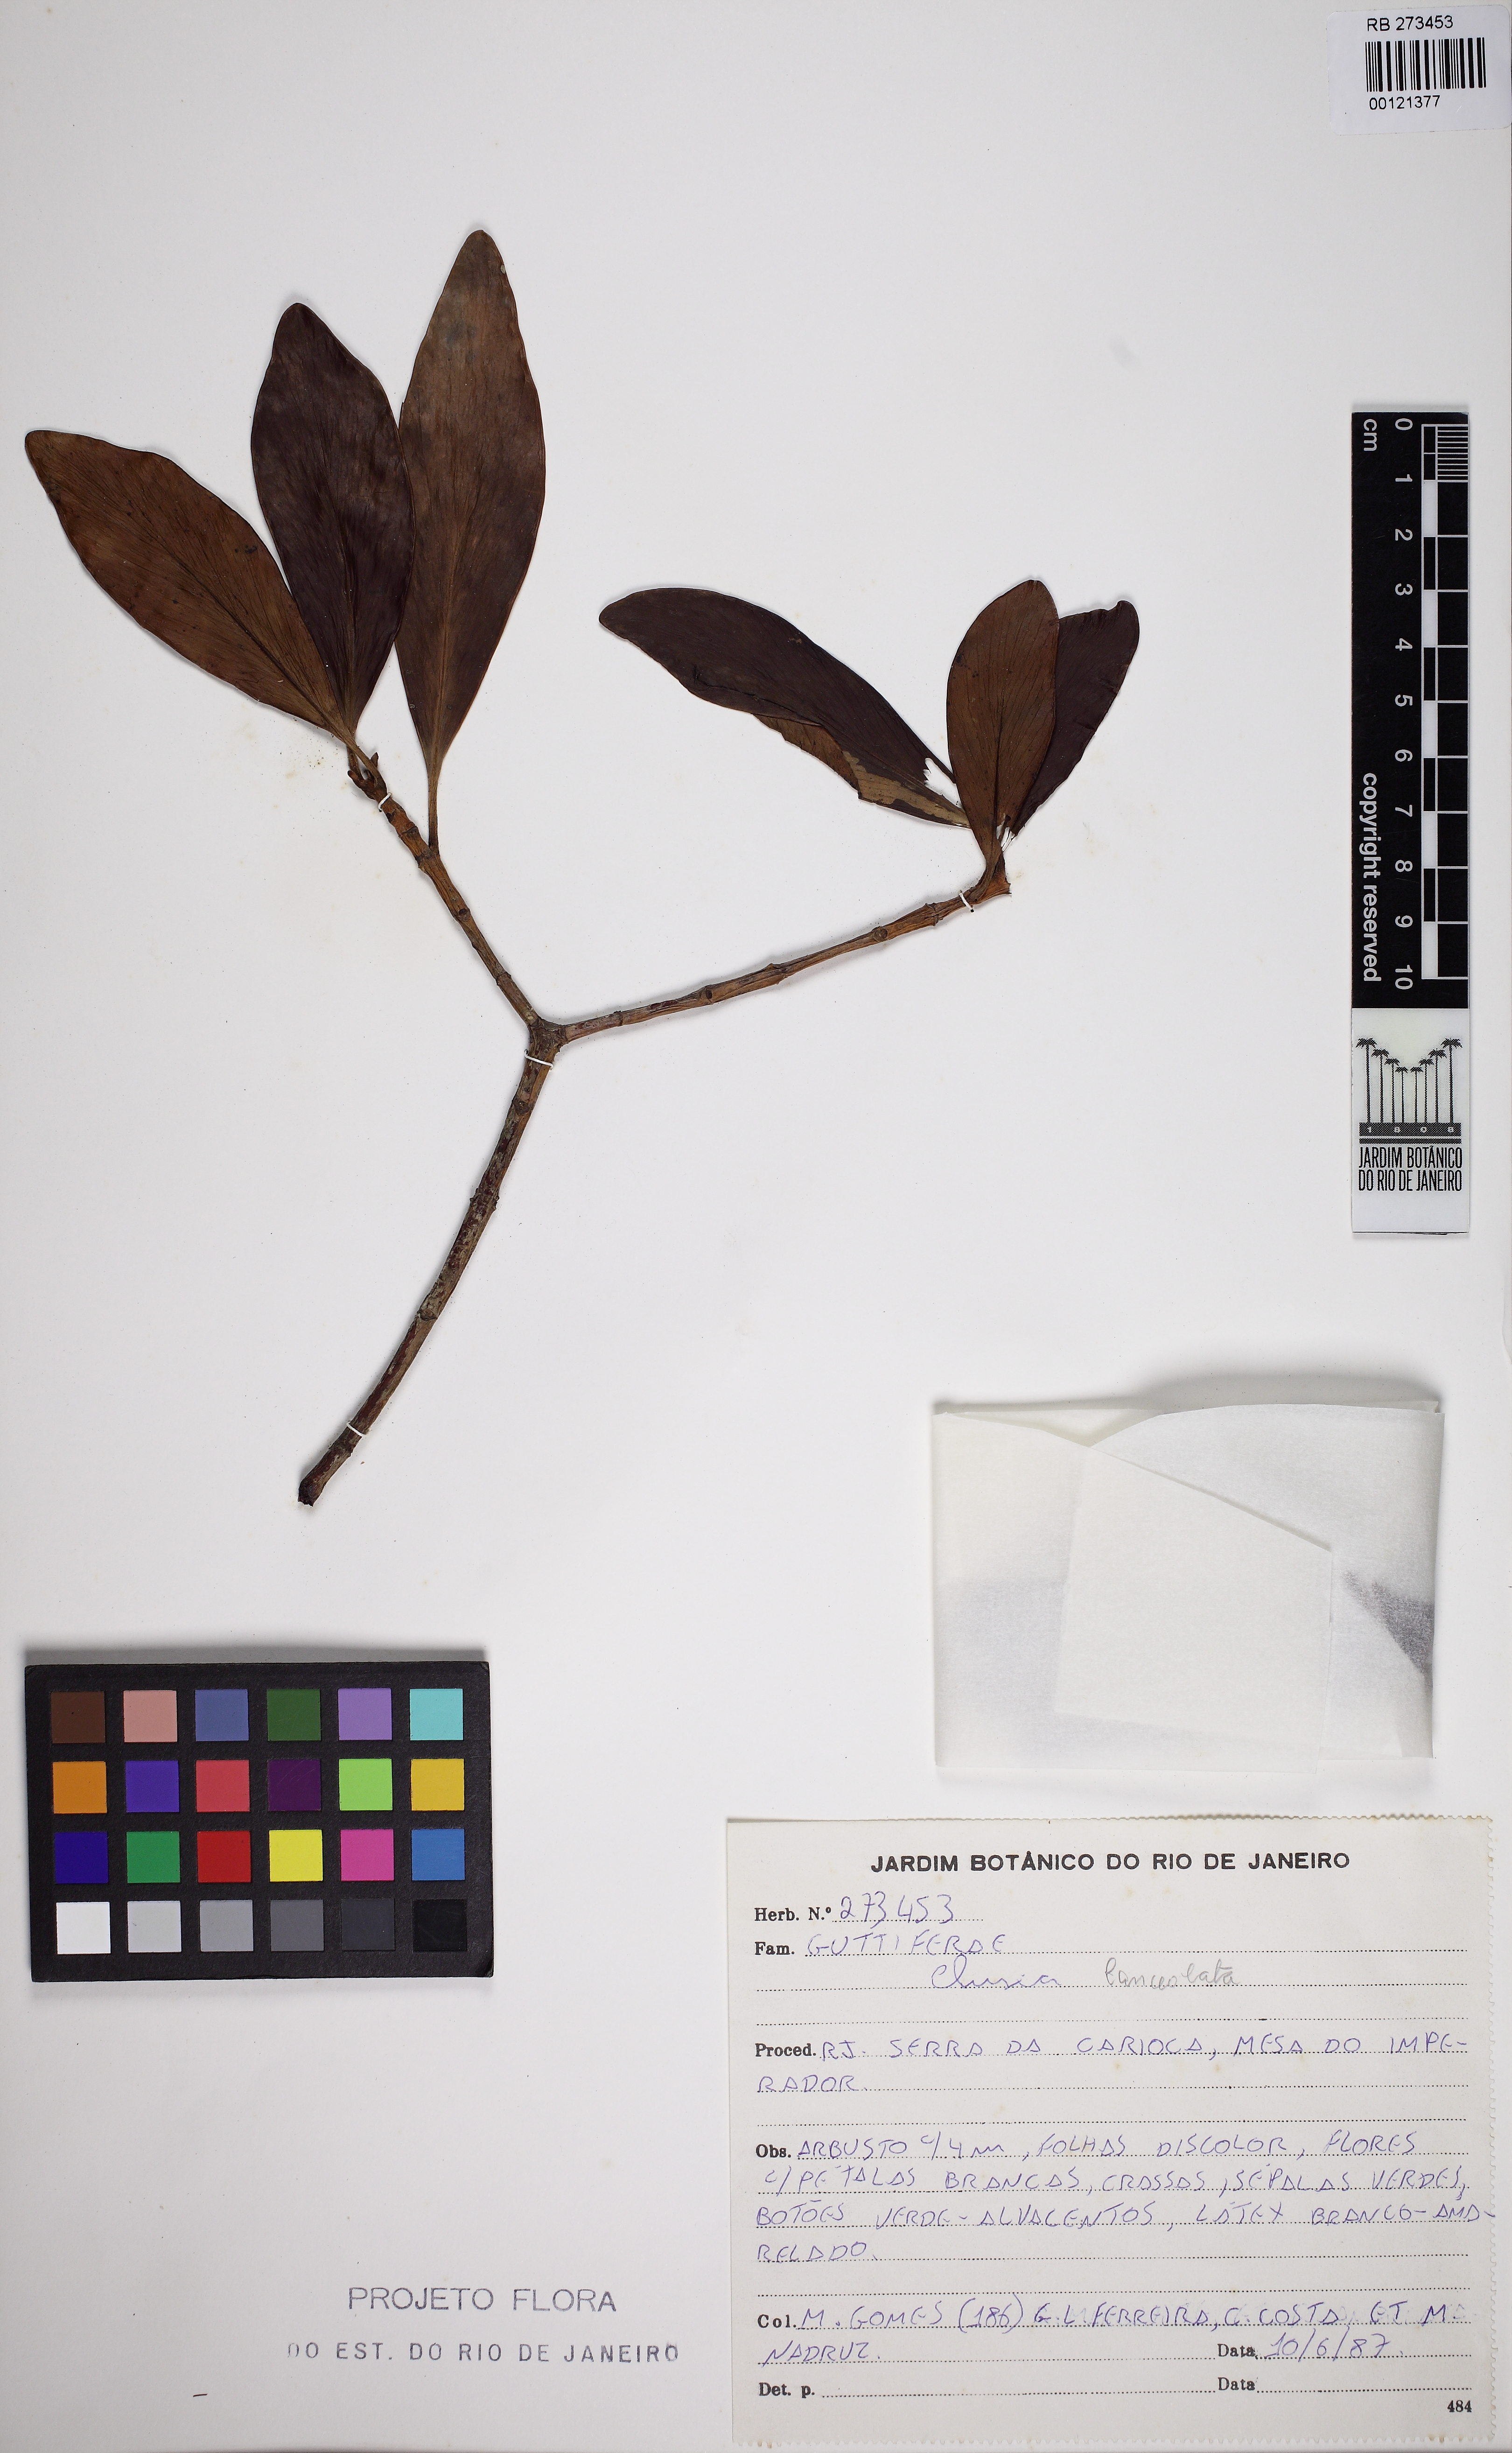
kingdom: Plantae
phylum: Tracheophyta
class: Magnoliopsida
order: Malpighiales
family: Clusiaceae
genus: Clusia
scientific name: Clusia lanceolata
